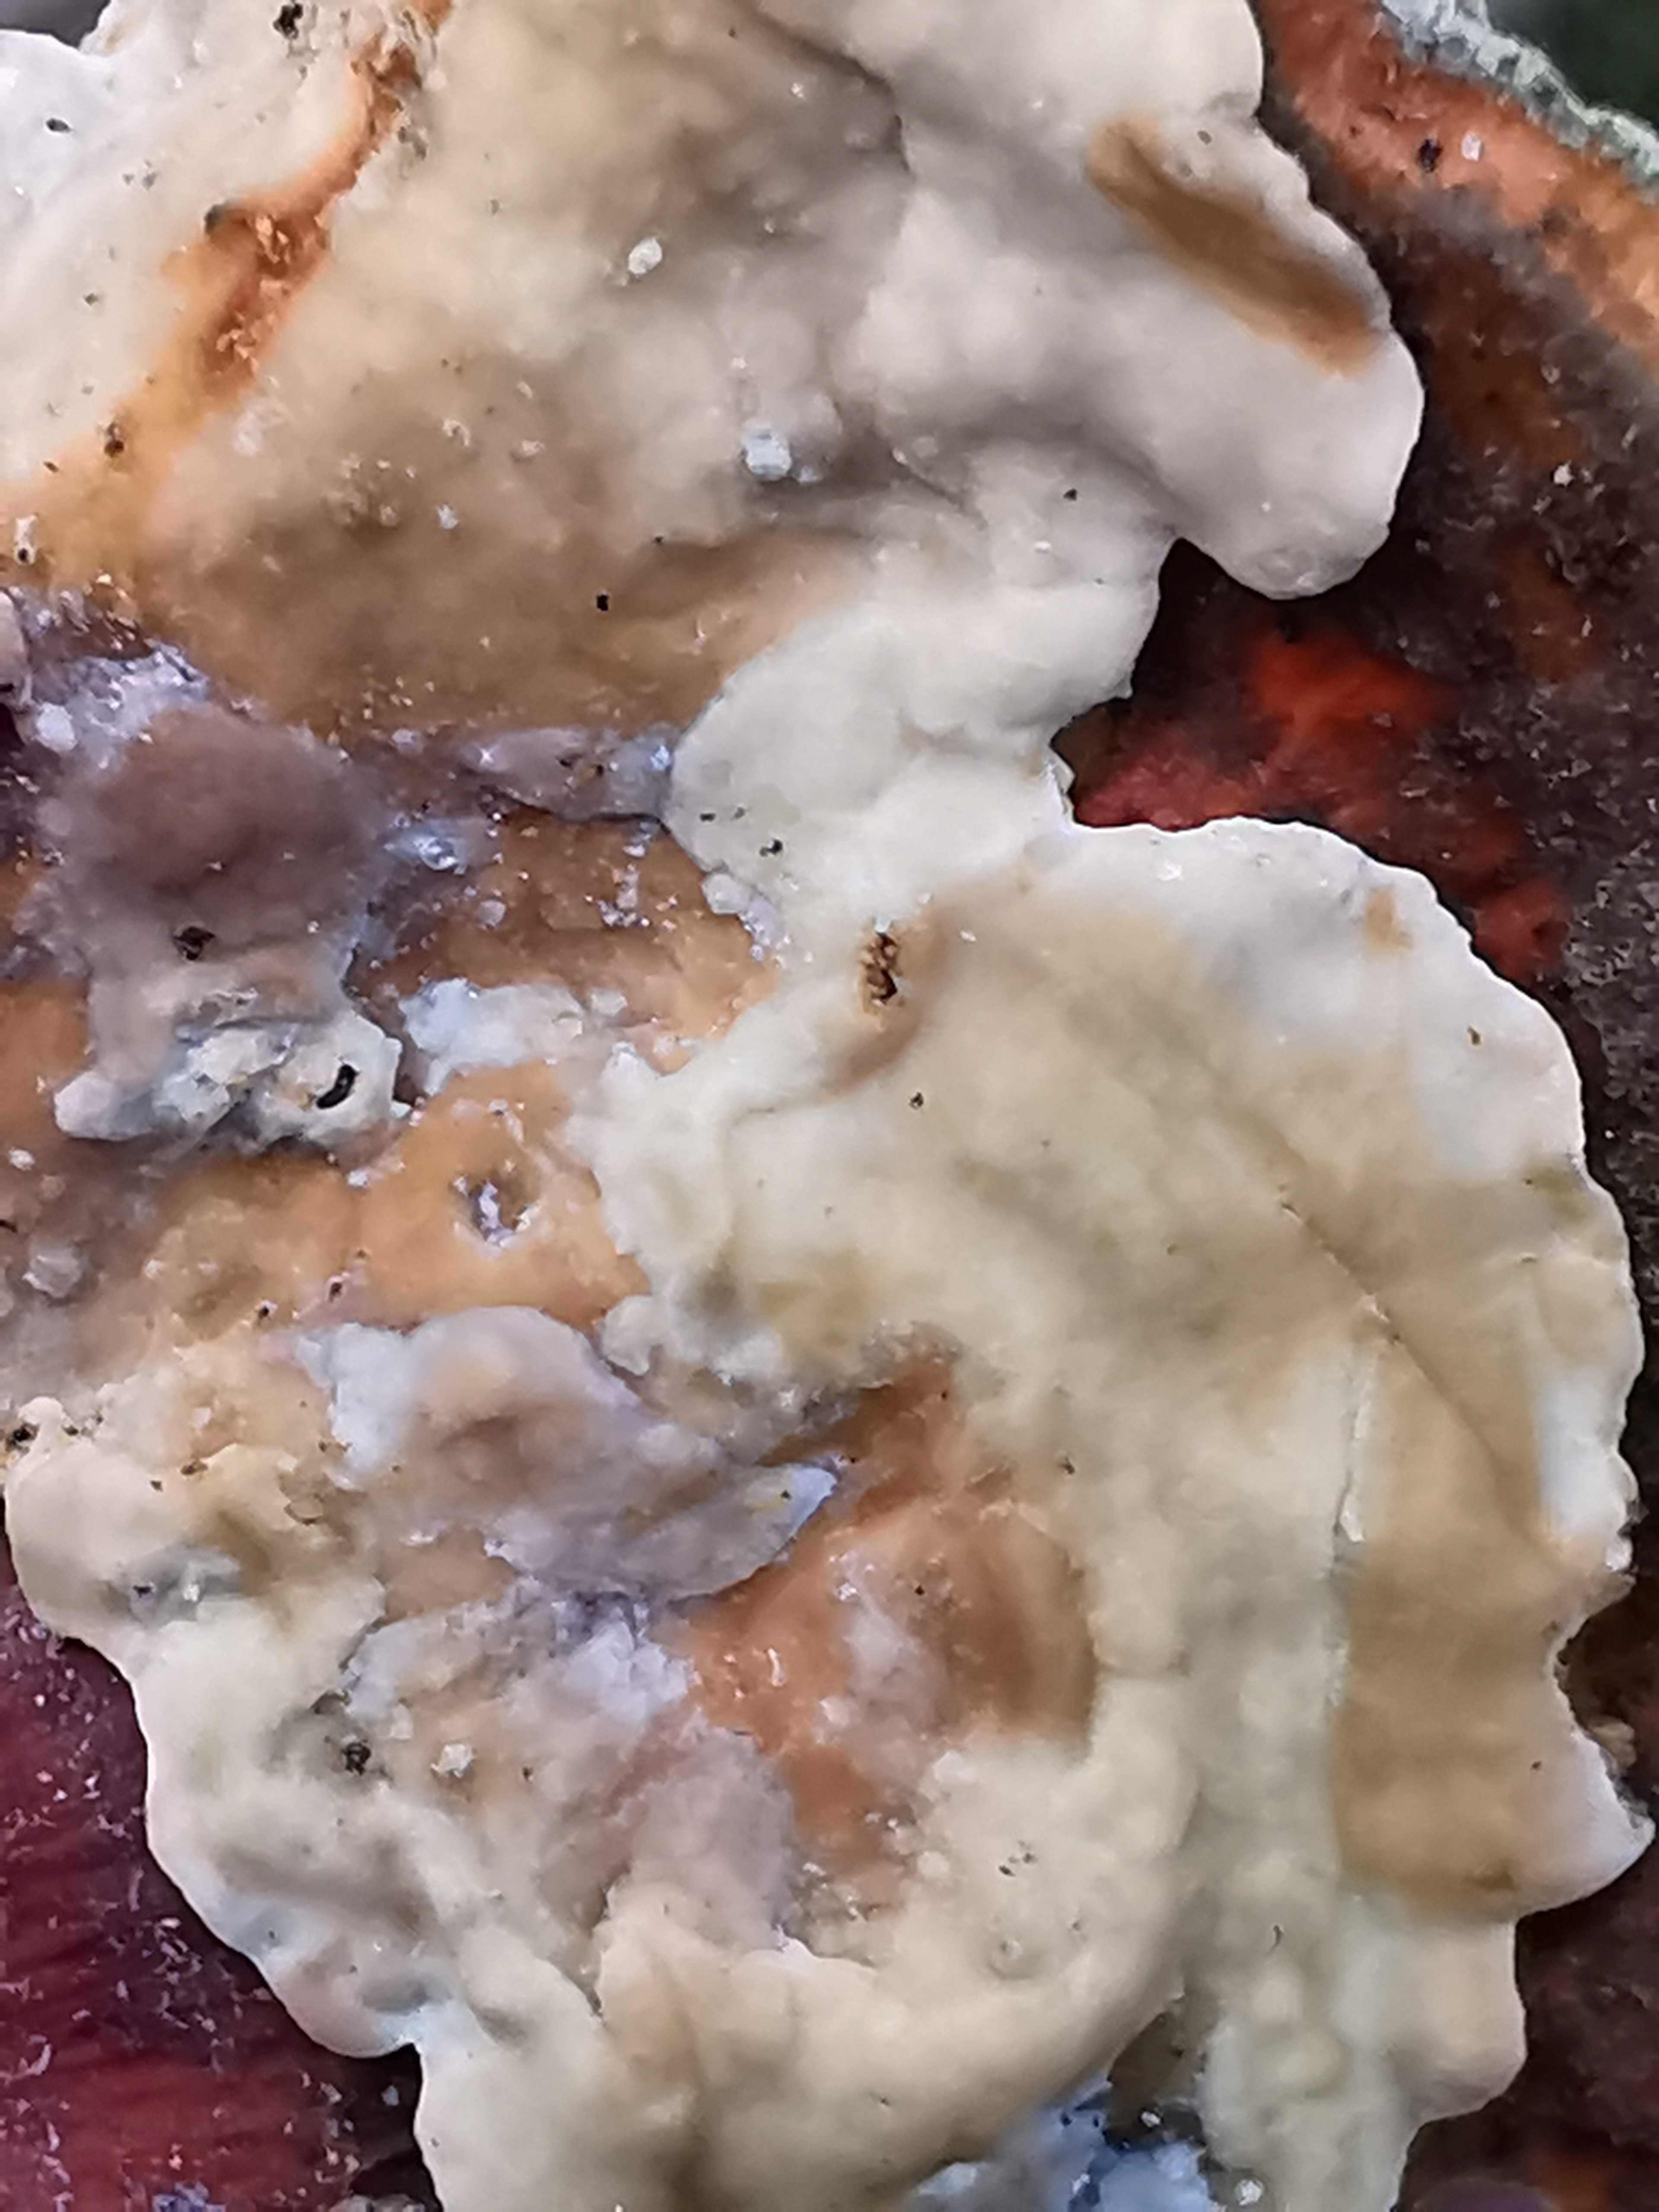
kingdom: Fungi
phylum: Basidiomycota
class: Agaricomycetes
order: Russulales
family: Stereaceae
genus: Stereum
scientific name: Stereum subtomentosum
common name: smuk lædersvamp
